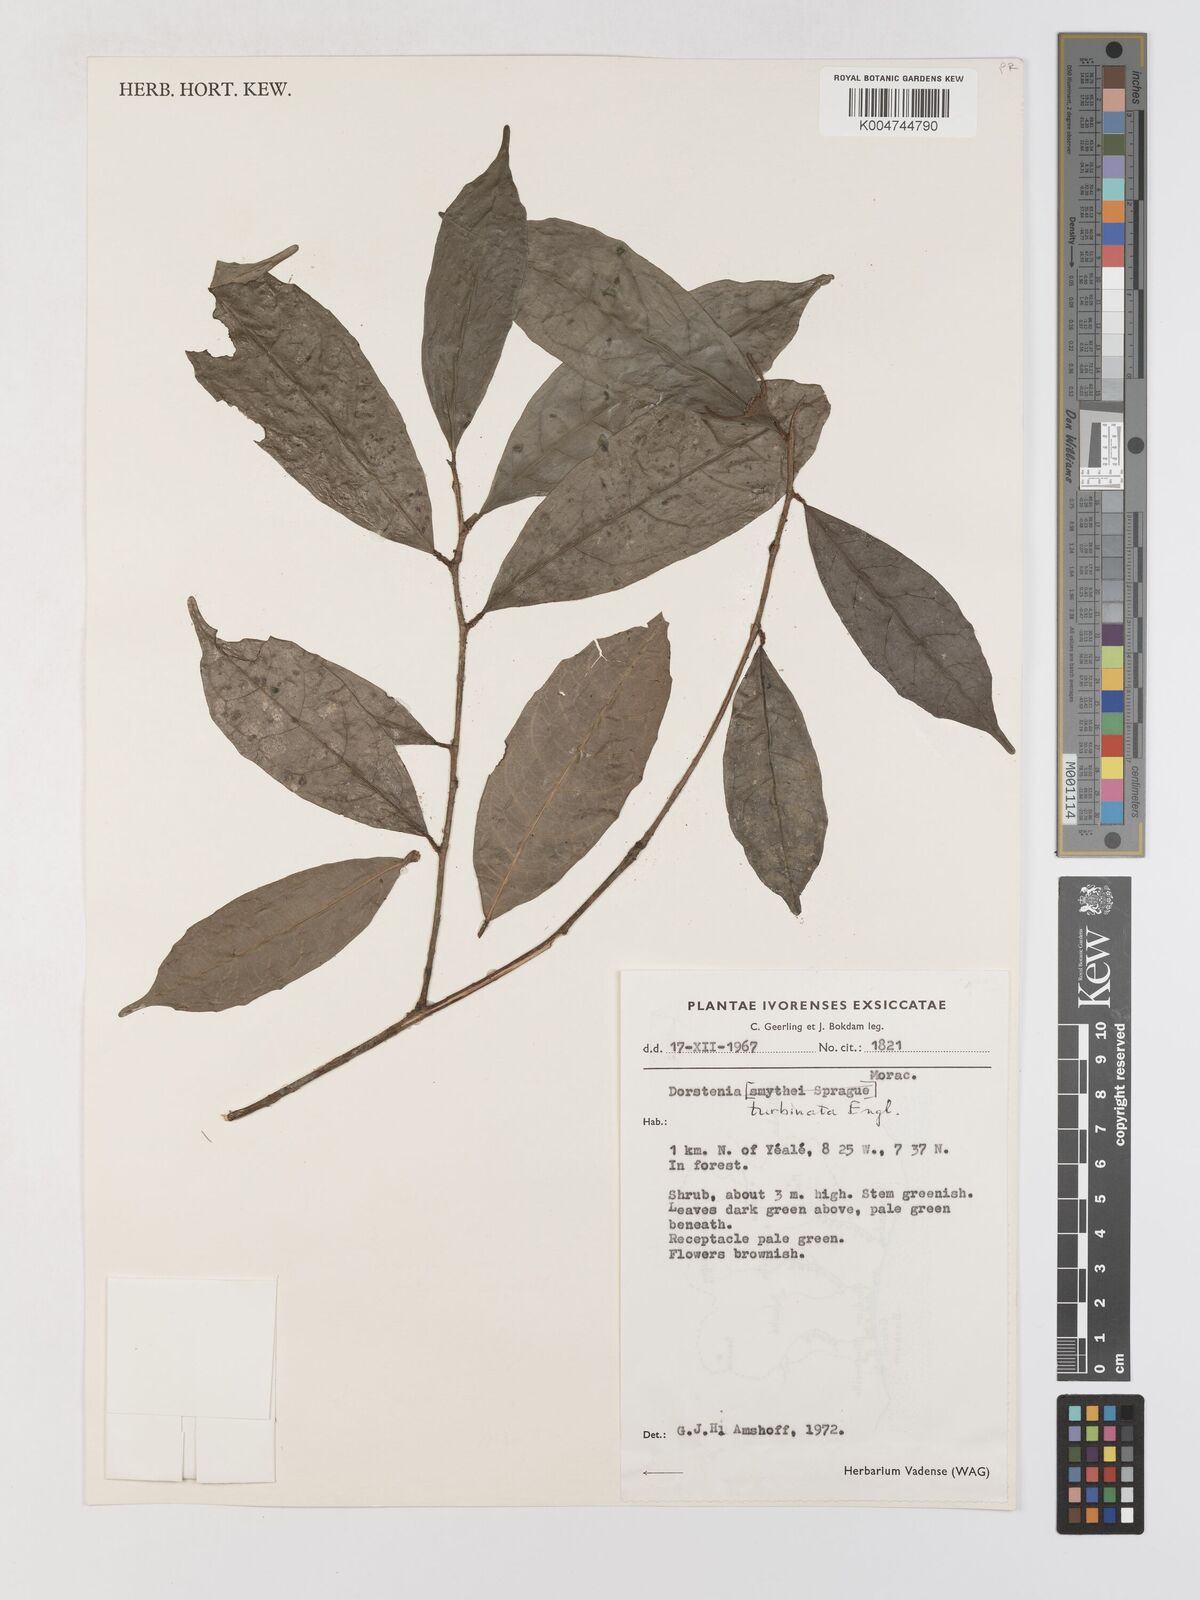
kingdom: Plantae
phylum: Tracheophyta
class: Magnoliopsida
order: Rosales
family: Moraceae
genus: Hijmania
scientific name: Hijmania turbinata
